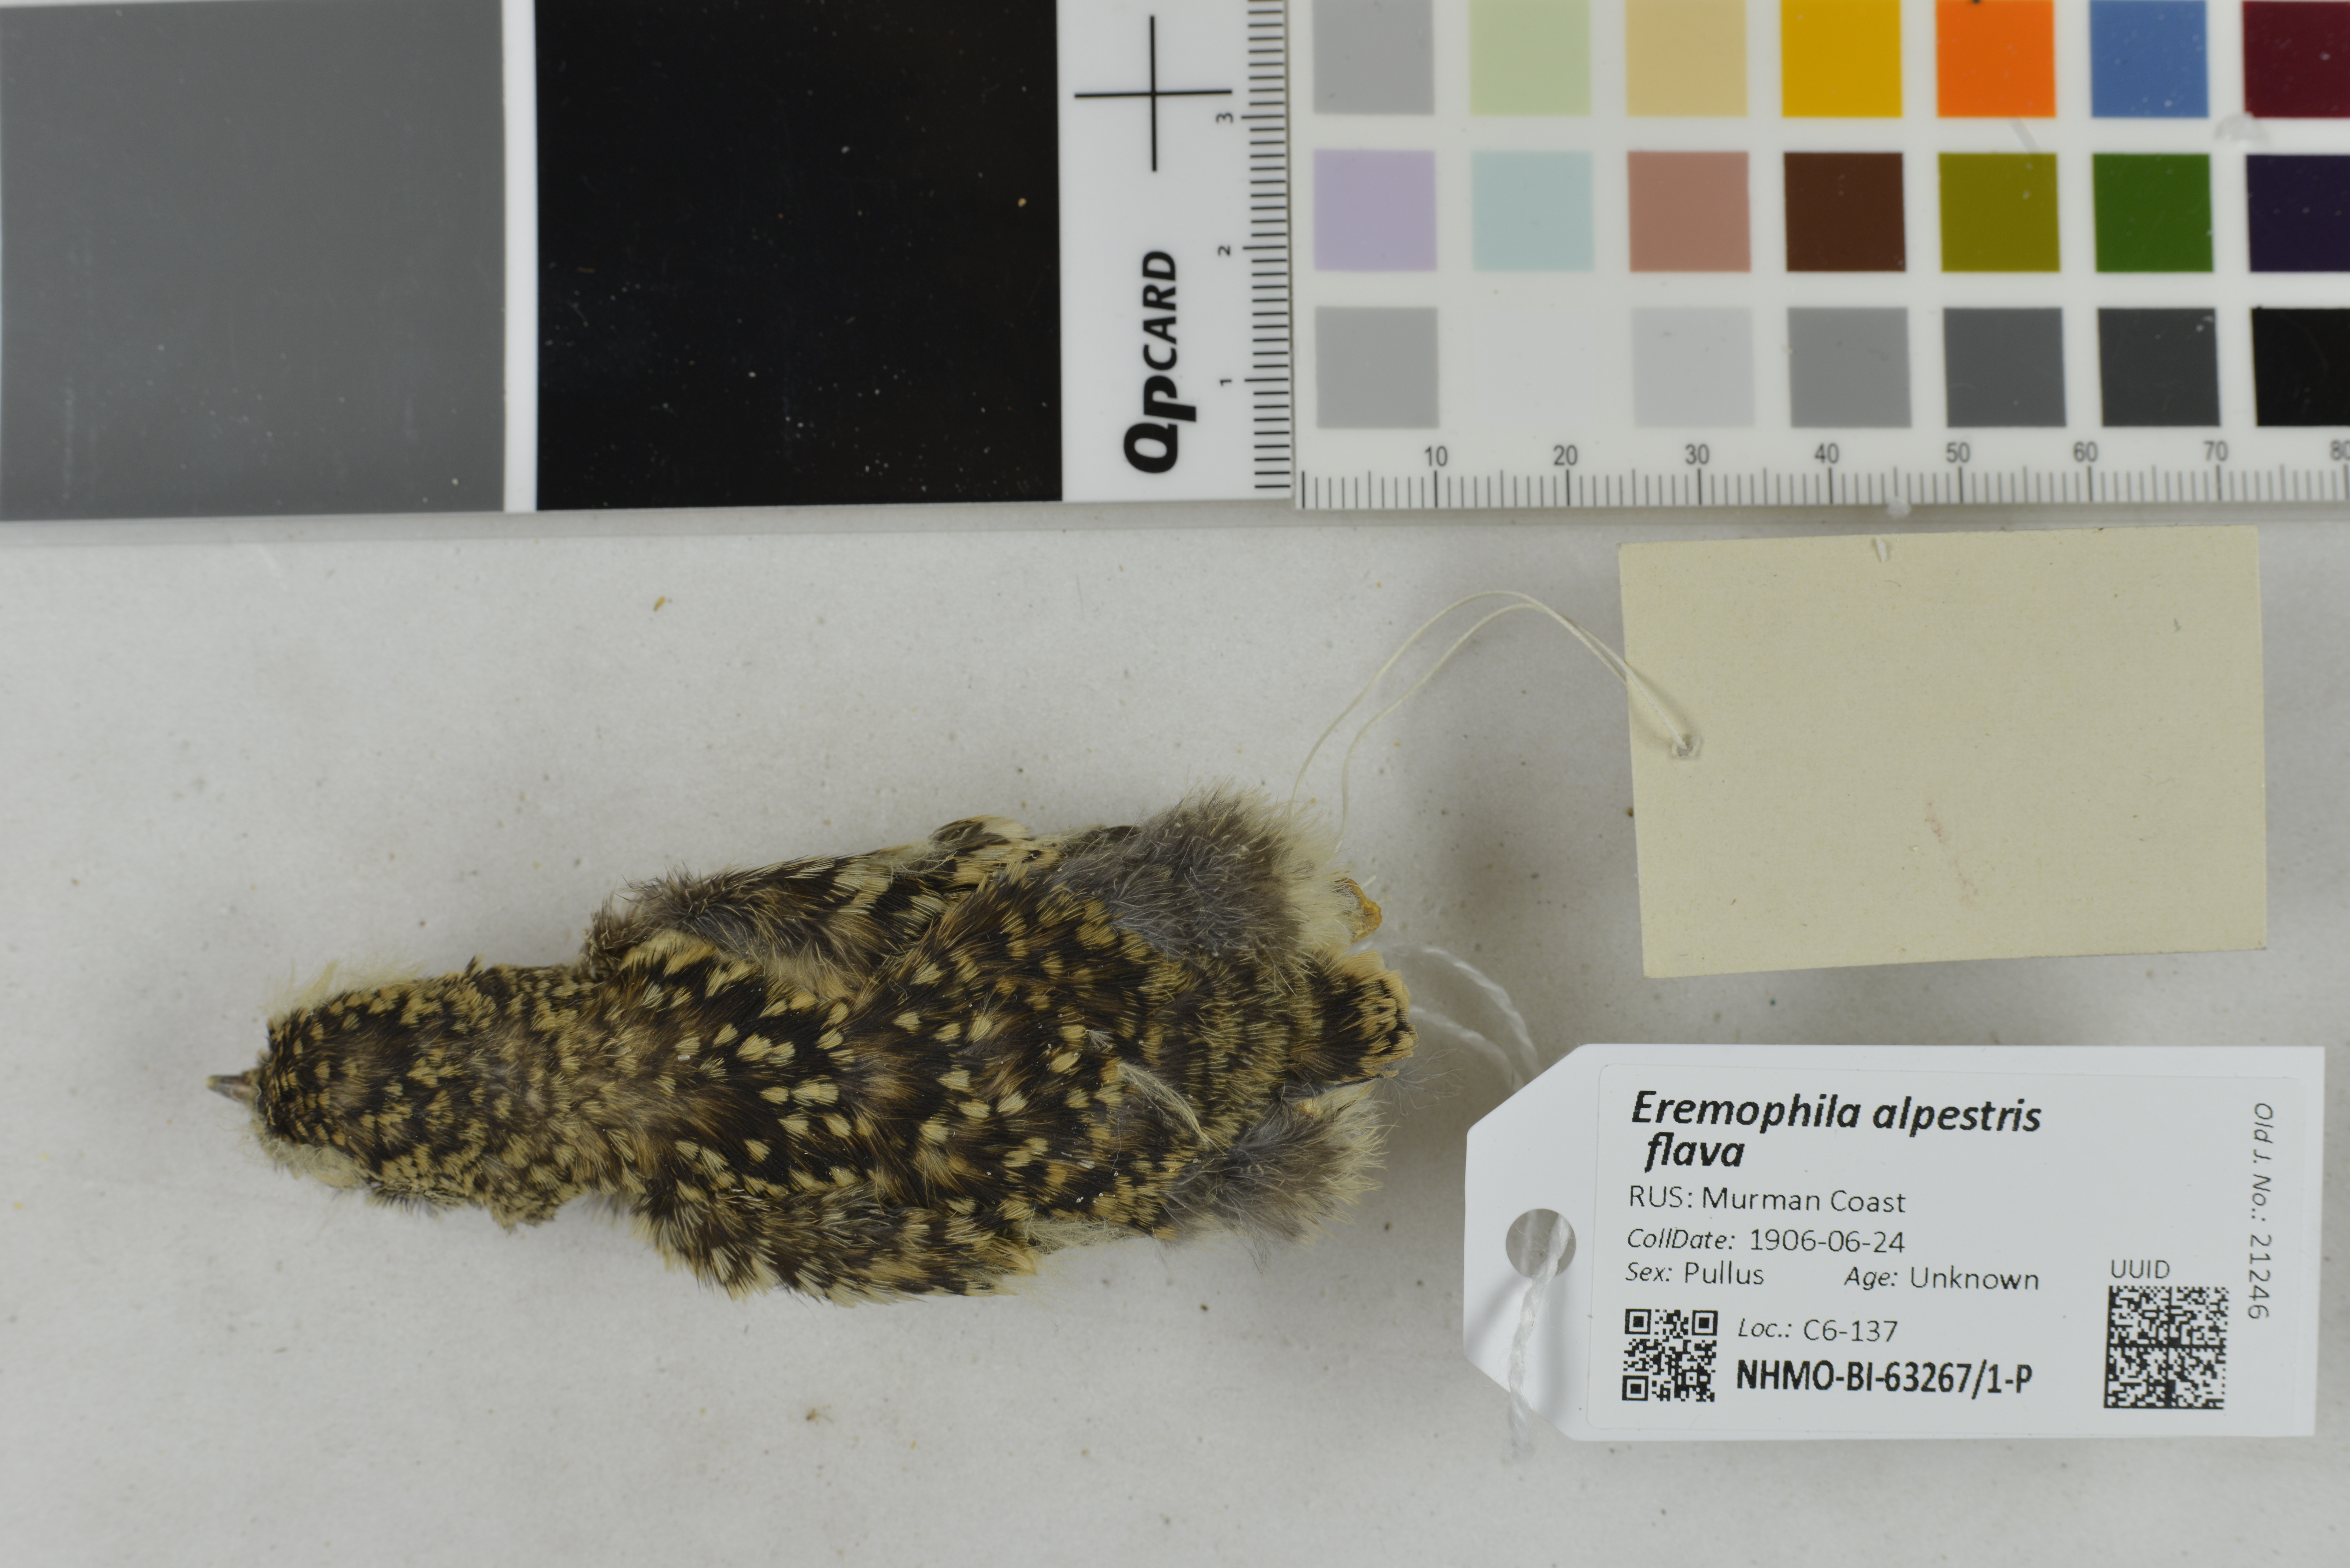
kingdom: Animalia
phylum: Chordata
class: Aves
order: Passeriformes
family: Alaudidae
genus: Eremophila
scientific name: Eremophila alpestris
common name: Horned lark
